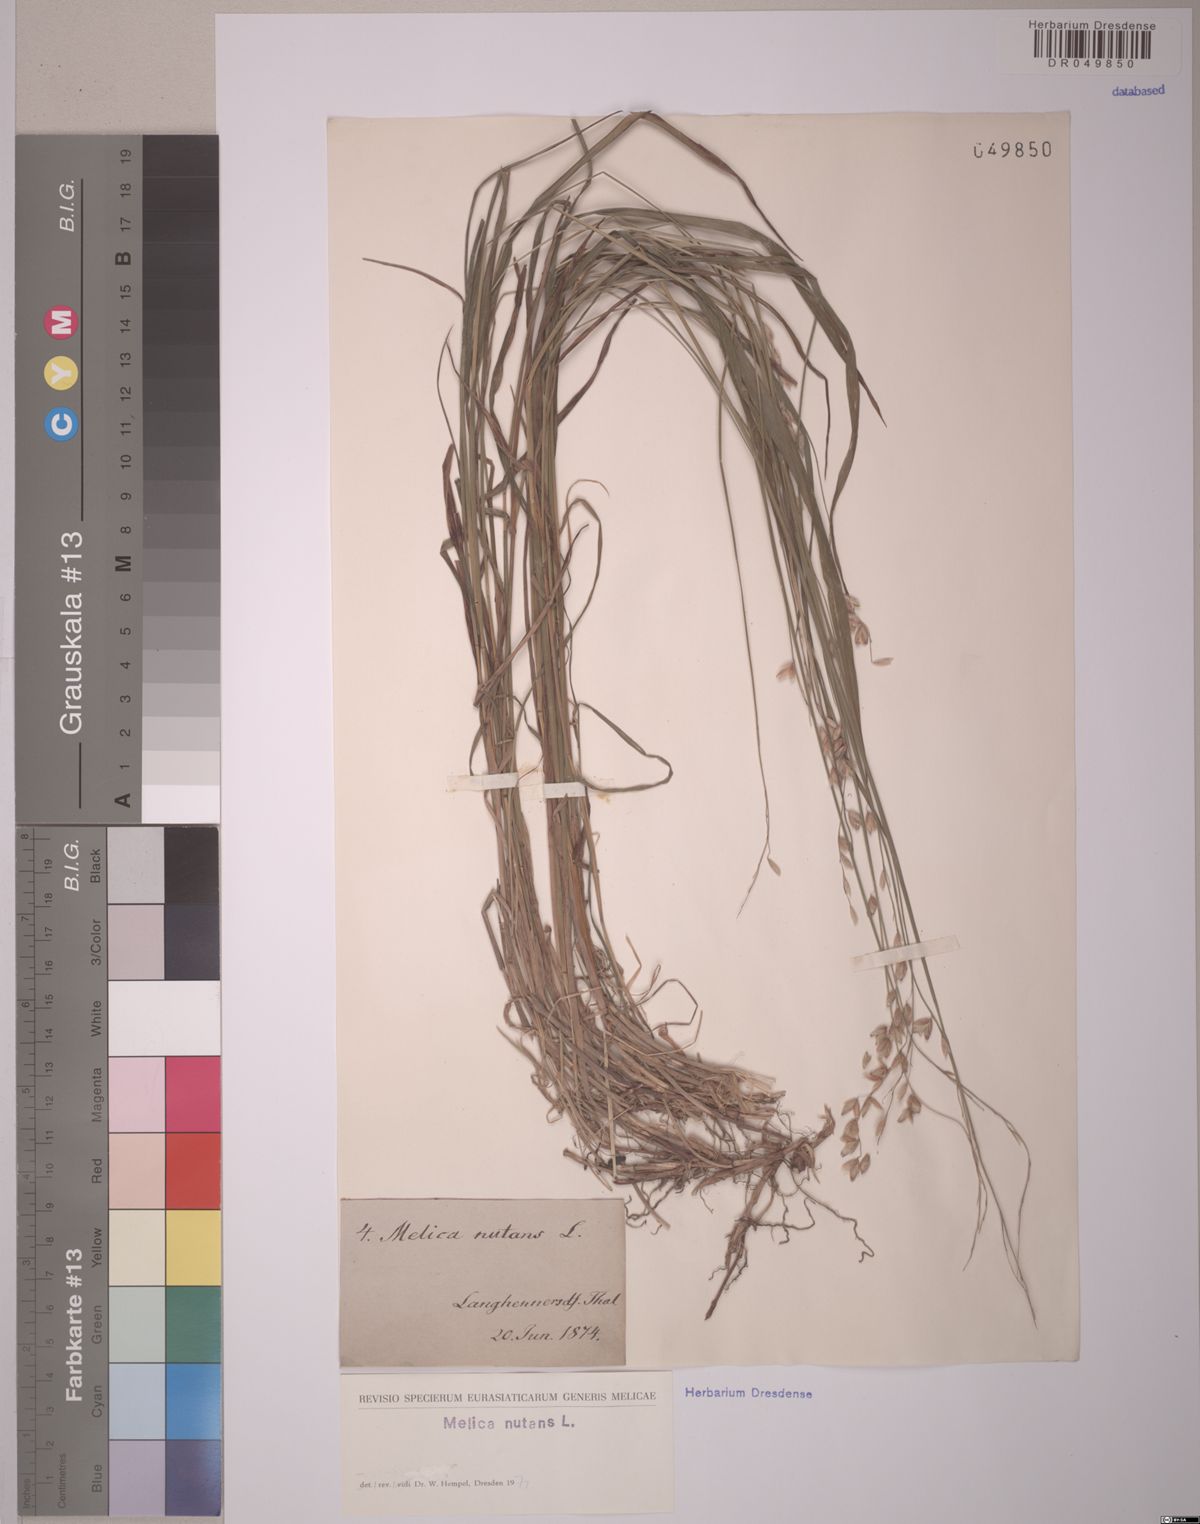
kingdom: Plantae
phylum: Tracheophyta
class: Liliopsida
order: Poales
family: Poaceae
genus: Melica
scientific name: Melica nutans
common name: Mountain melick
